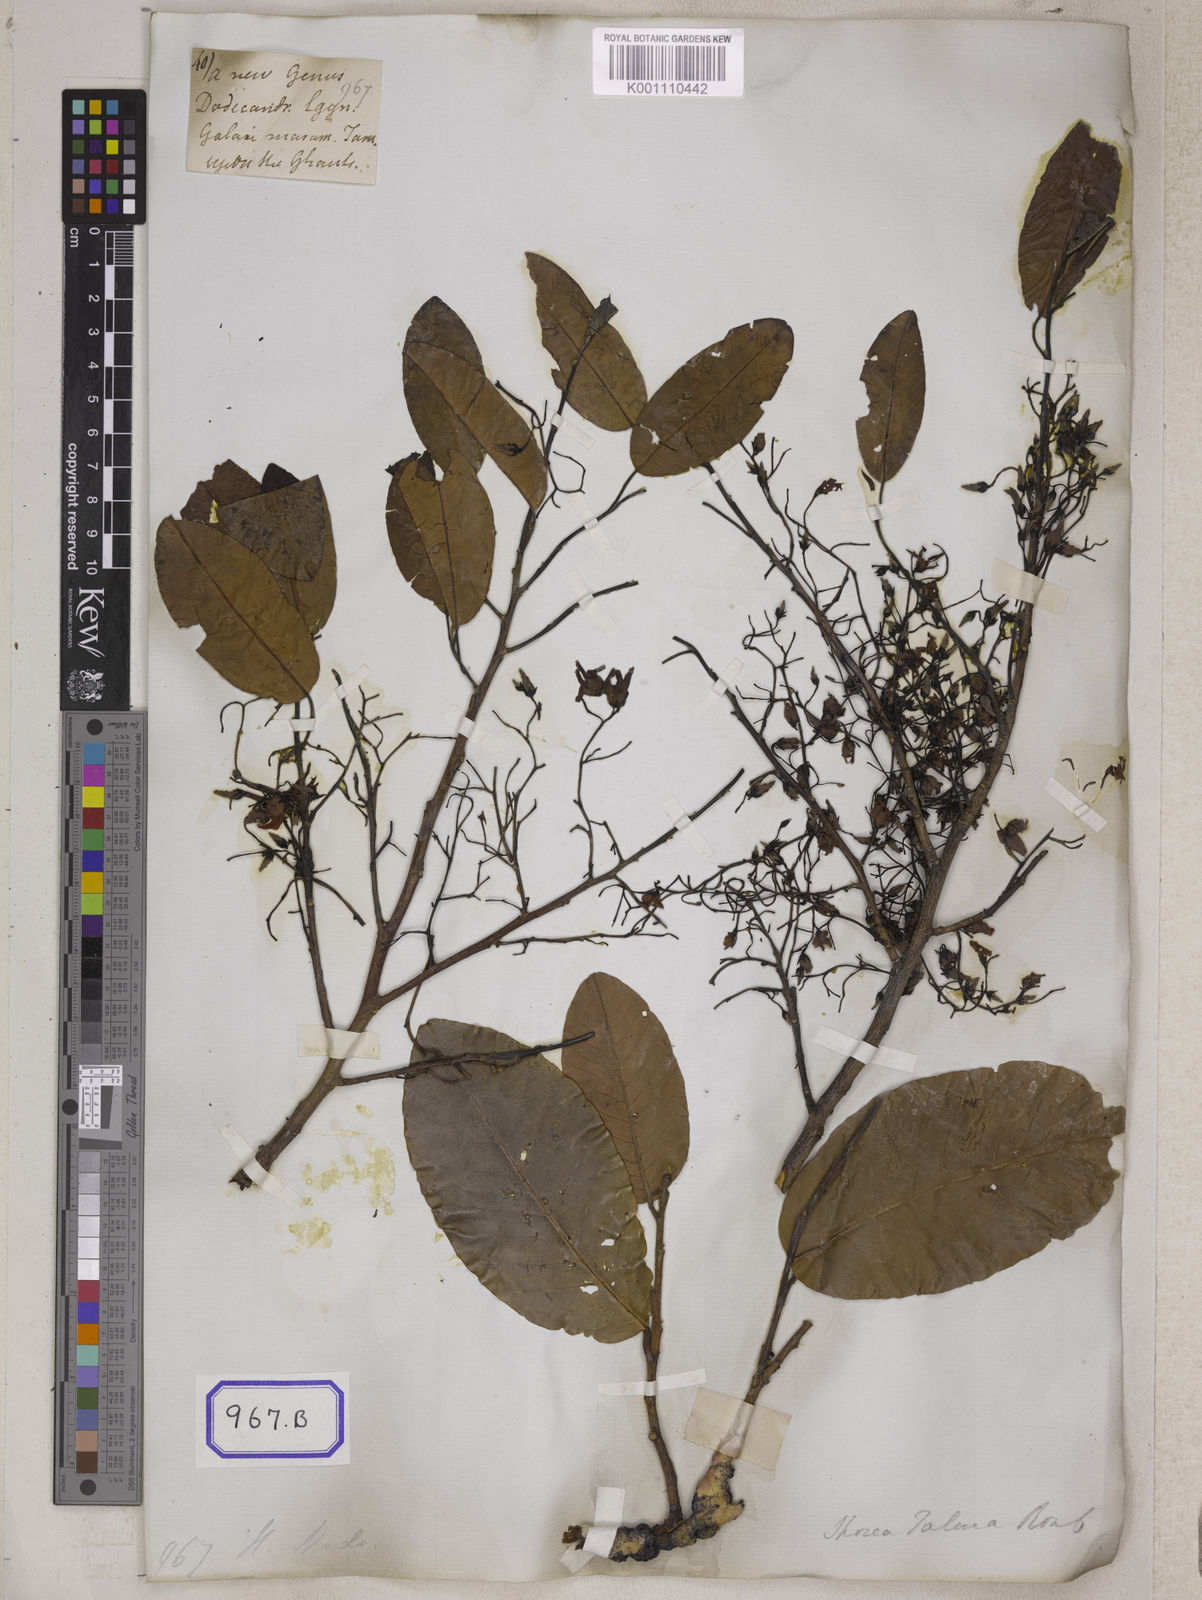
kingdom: Plantae
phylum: Tracheophyta
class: Magnoliopsida
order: Malvales
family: Dipterocarpaceae
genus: Shorea
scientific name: Shorea
